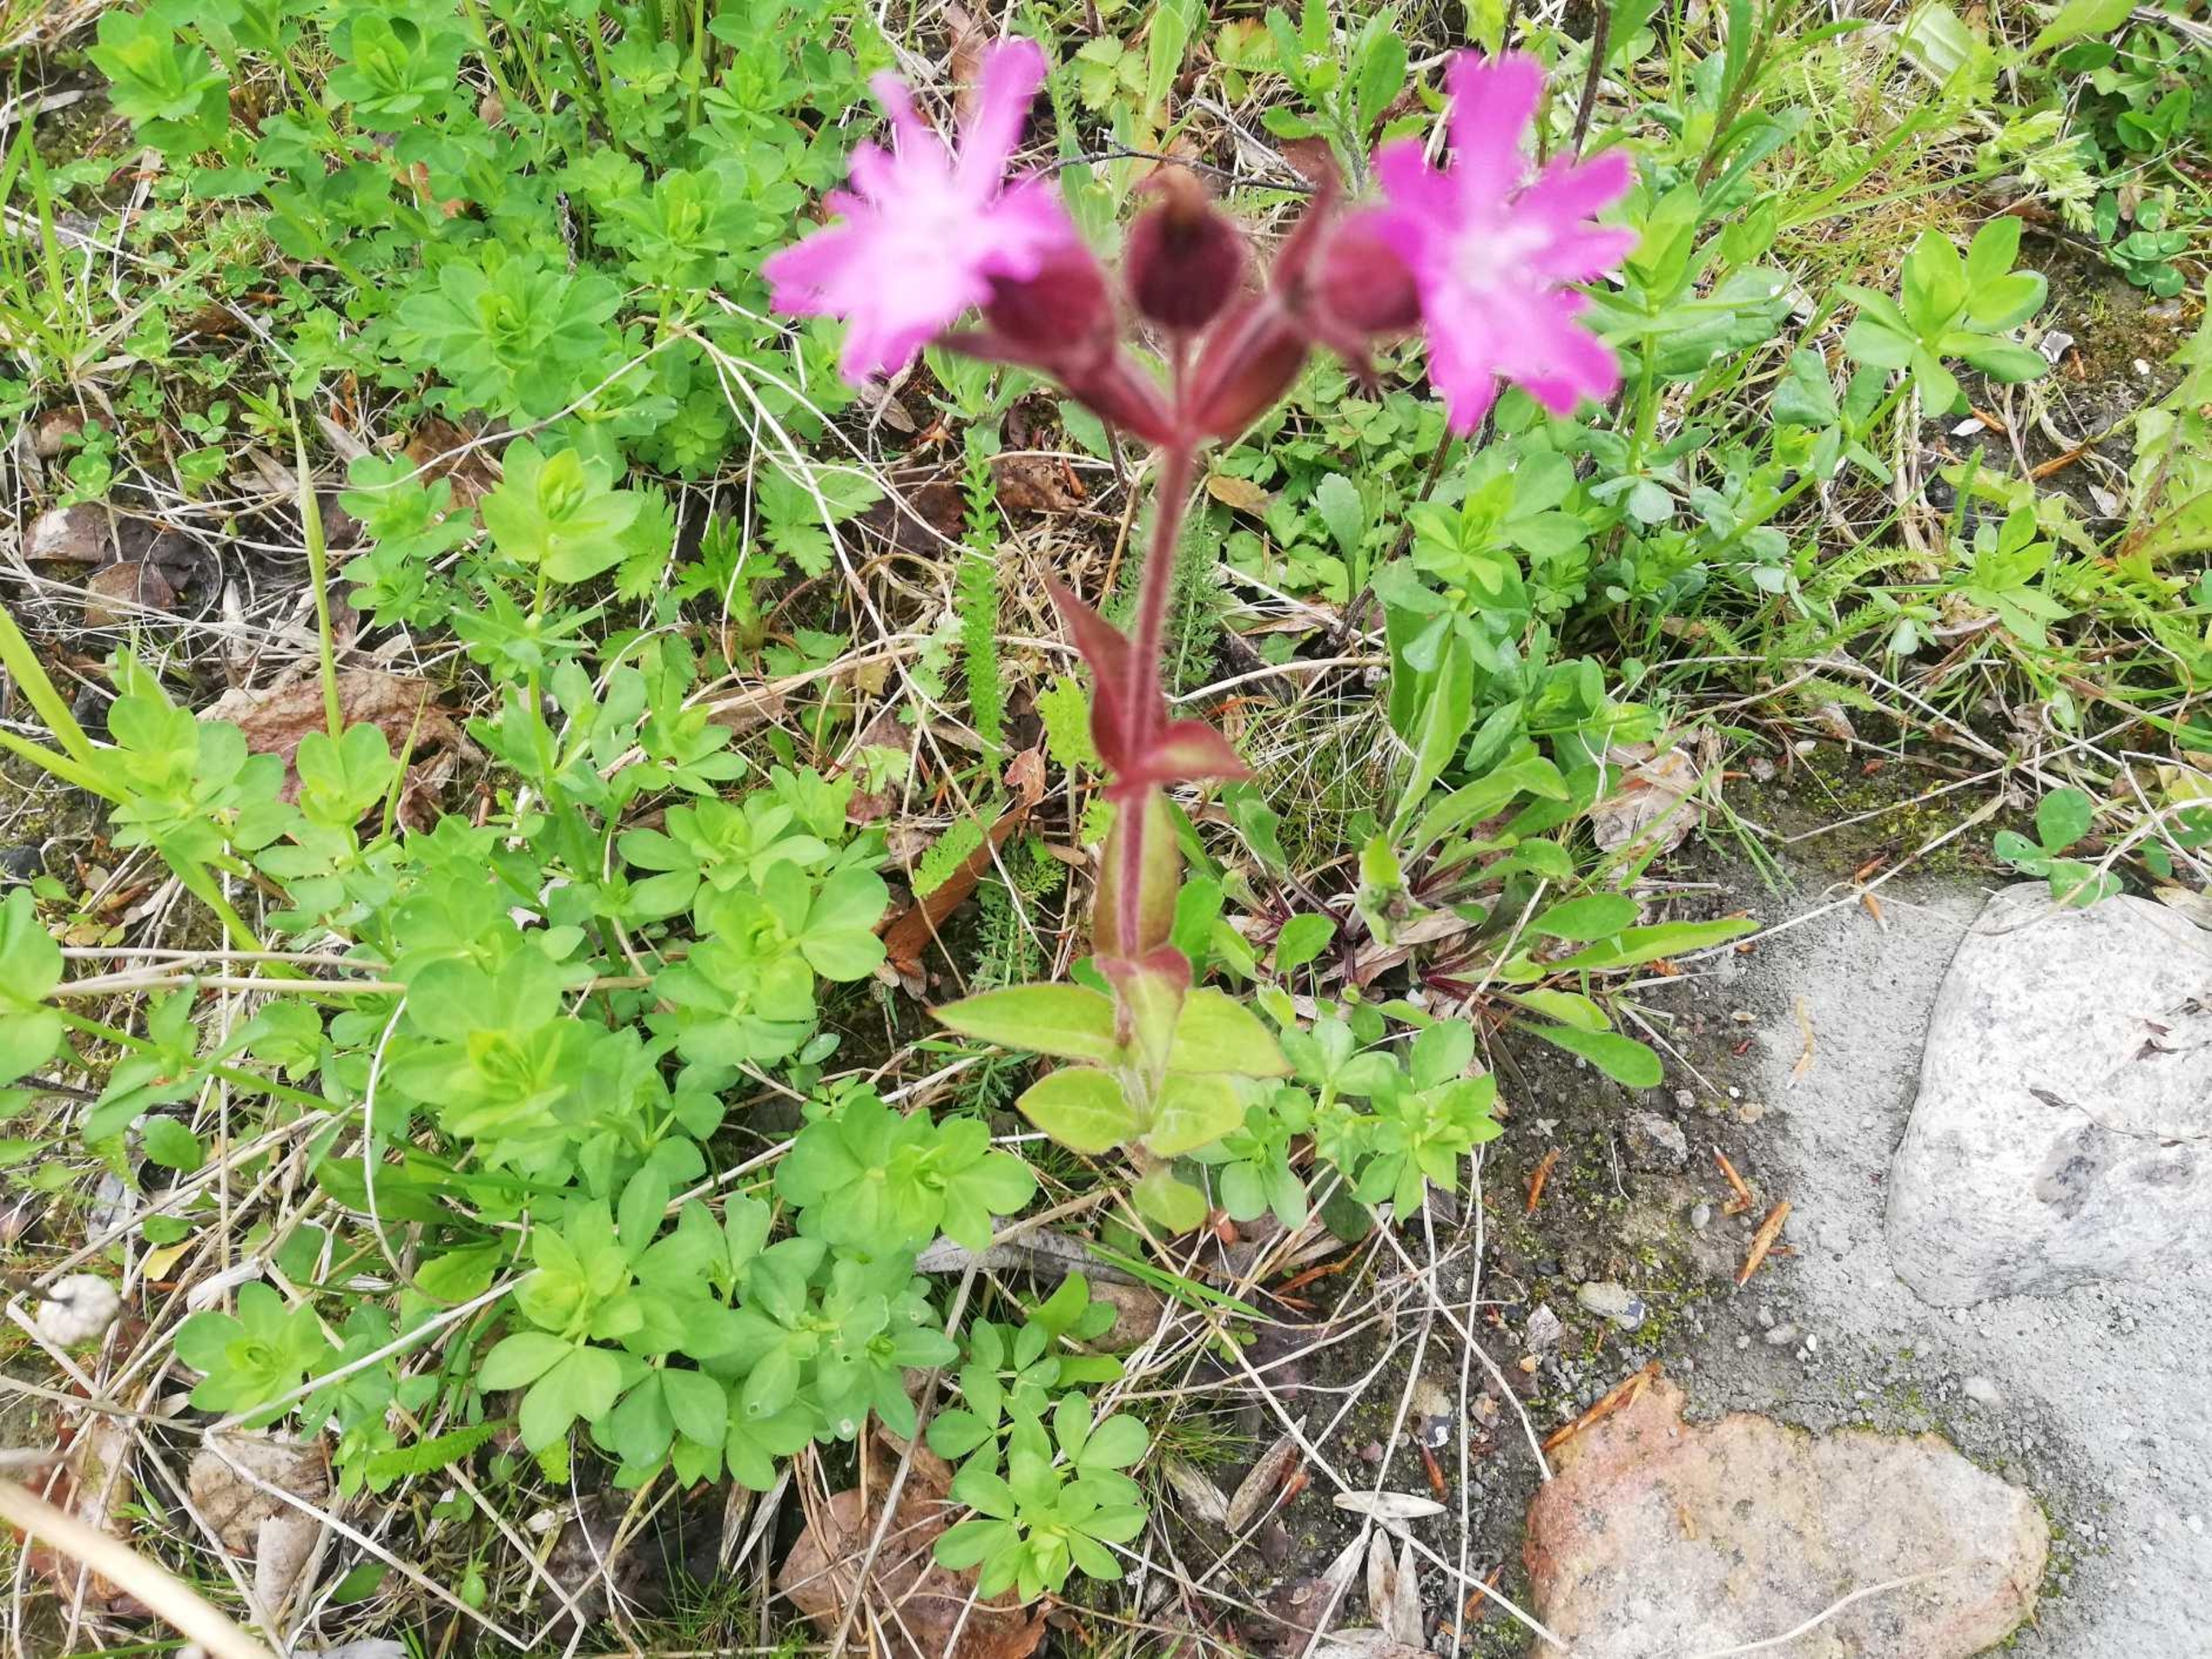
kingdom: Plantae
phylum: Tracheophyta
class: Magnoliopsida
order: Caryophyllales
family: Caryophyllaceae
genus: Silene
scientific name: Silene dioica
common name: Dagpragtstjerne
